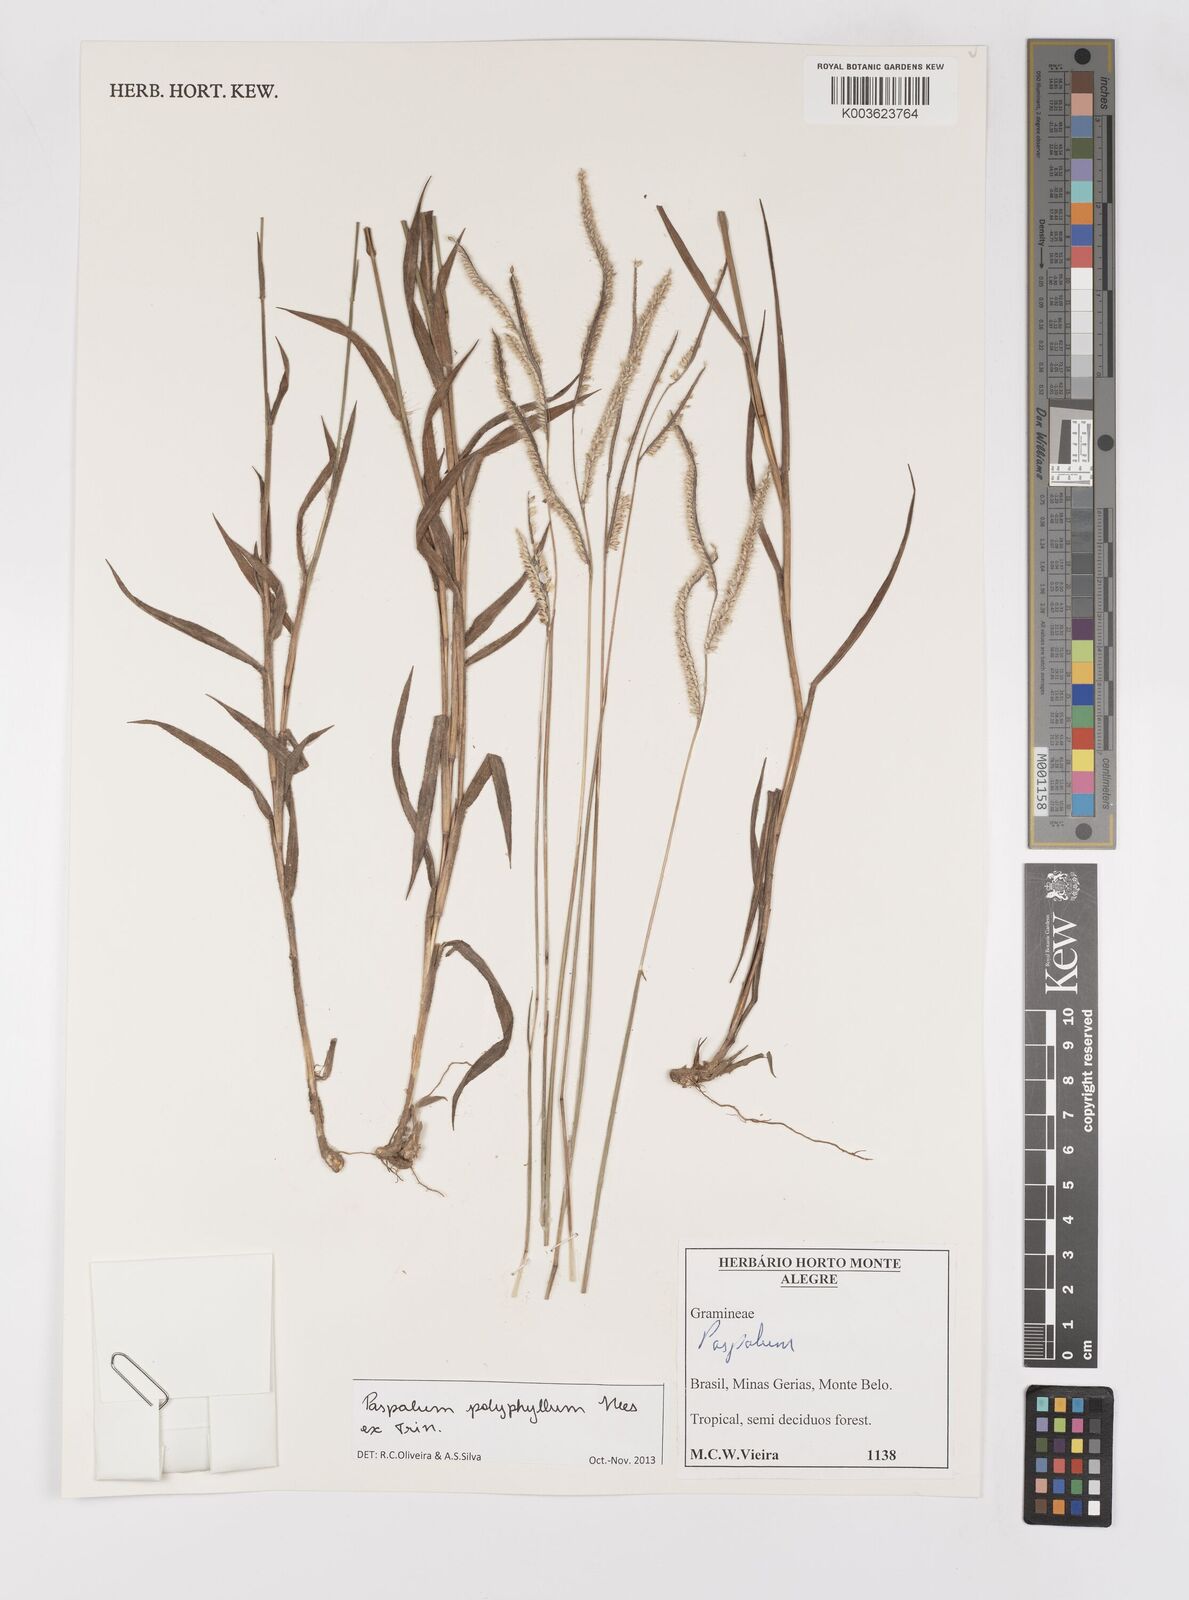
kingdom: Plantae
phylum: Tracheophyta
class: Liliopsida
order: Poales
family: Poaceae
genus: Paspalum
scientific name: Paspalum polyphyllum
